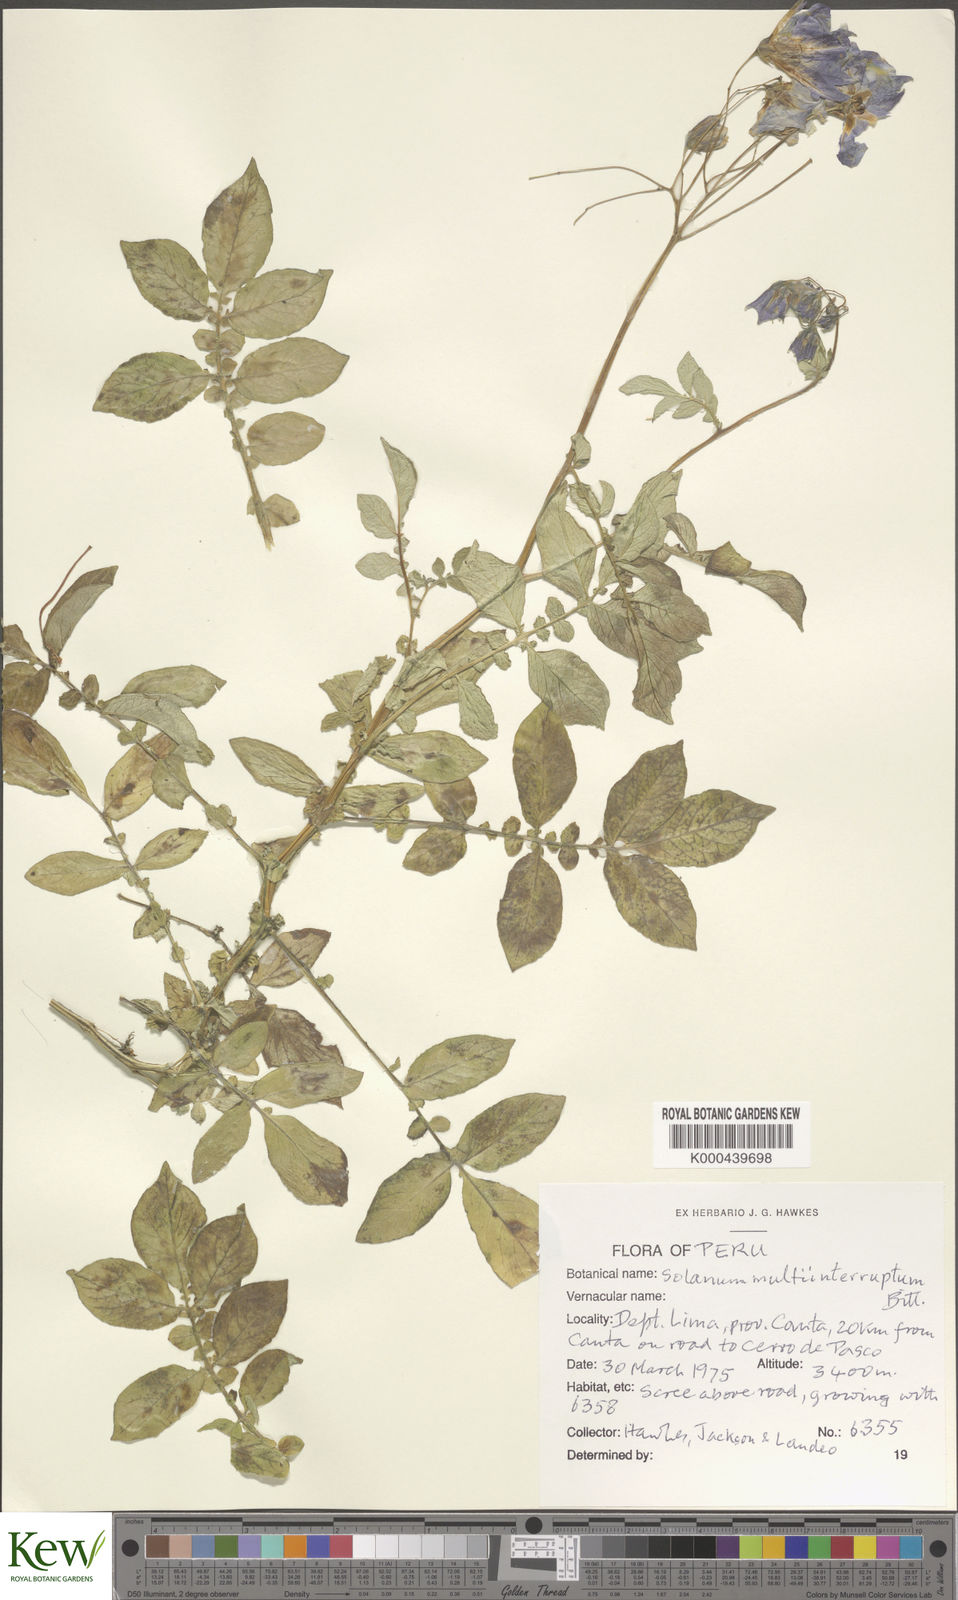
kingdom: Plantae
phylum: Tracheophyta
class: Magnoliopsida
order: Solanales
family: Solanaceae
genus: Solanum
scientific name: Solanum multiinterruptum
